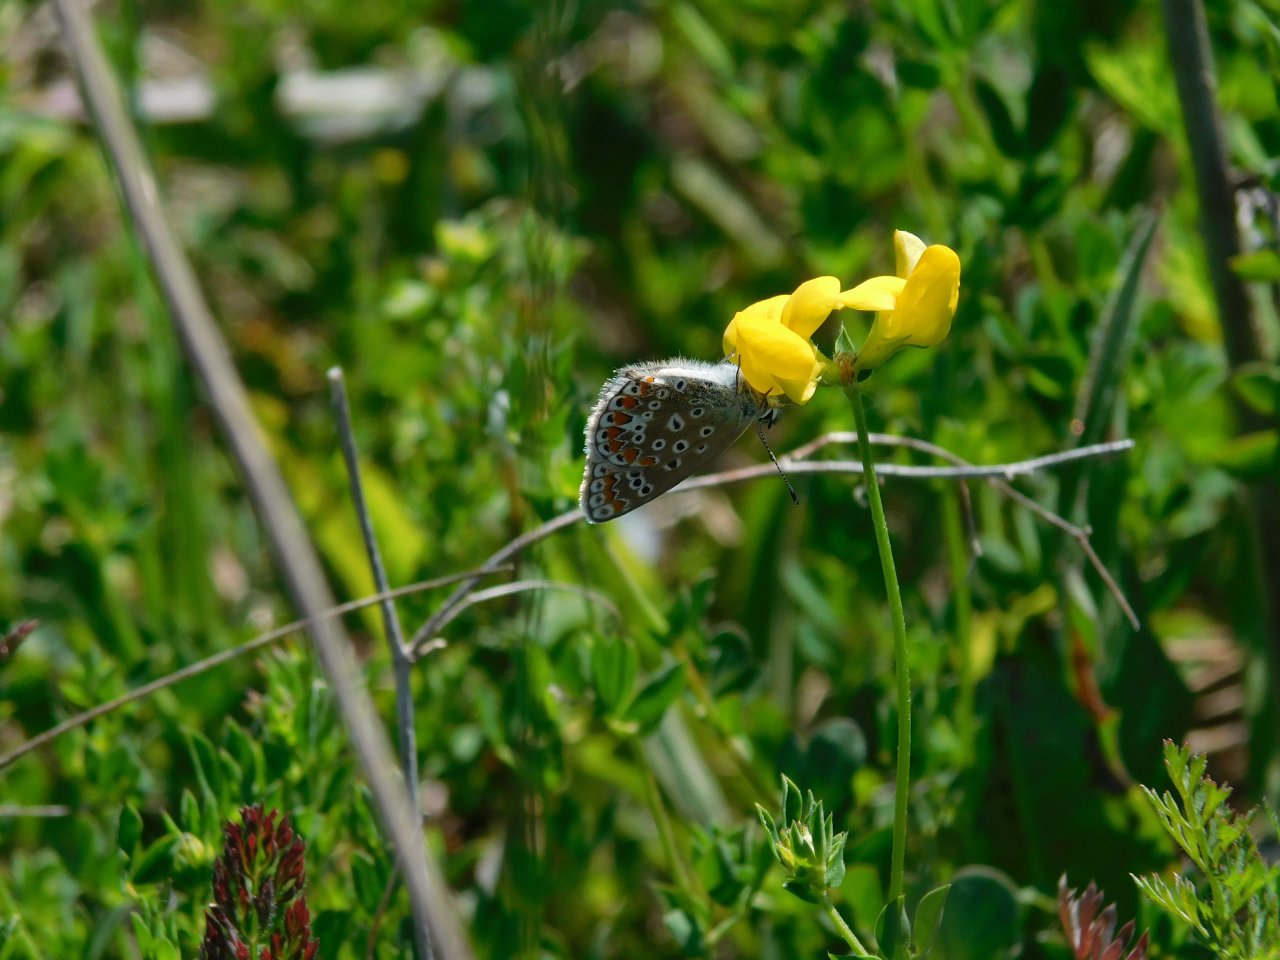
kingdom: Animalia
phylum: Arthropoda
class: Insecta
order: Lepidoptera
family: Lycaenidae
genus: Polyommatus
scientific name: Polyommatus icarus
